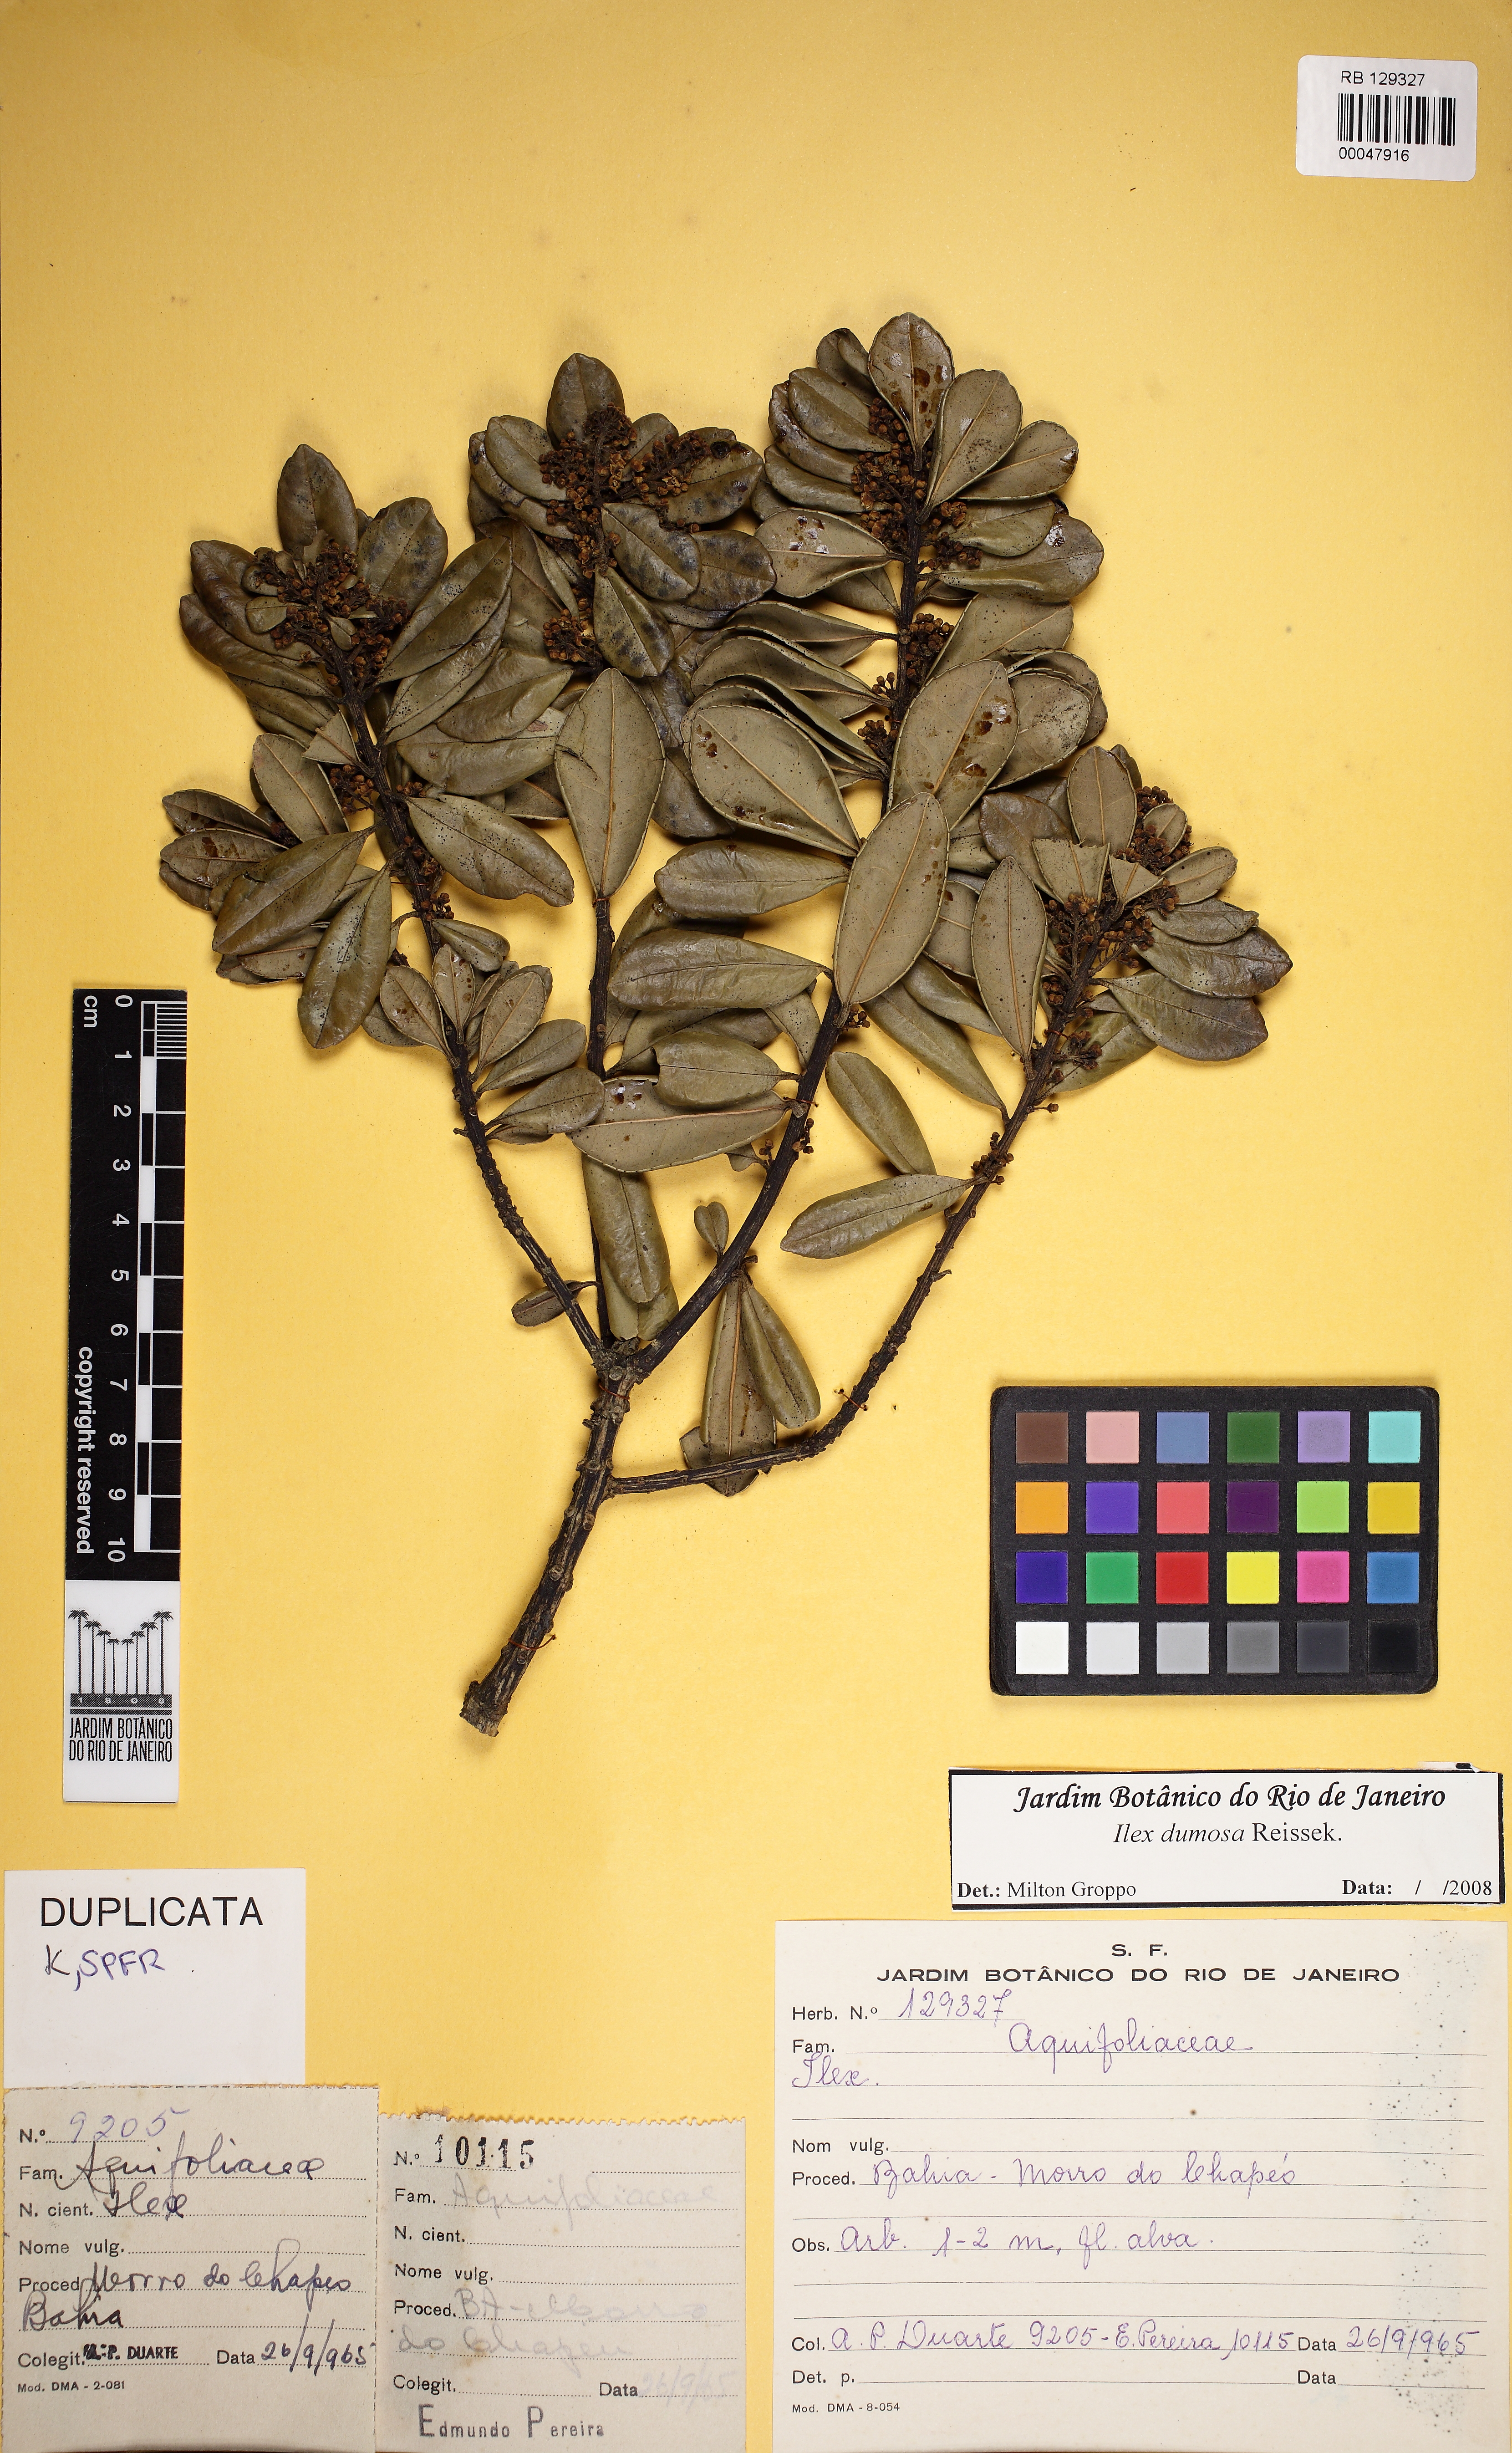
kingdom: Plantae
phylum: Tracheophyta
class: Magnoliopsida
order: Aquifoliales
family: Aquifoliaceae
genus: Ilex
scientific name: Ilex affinis
